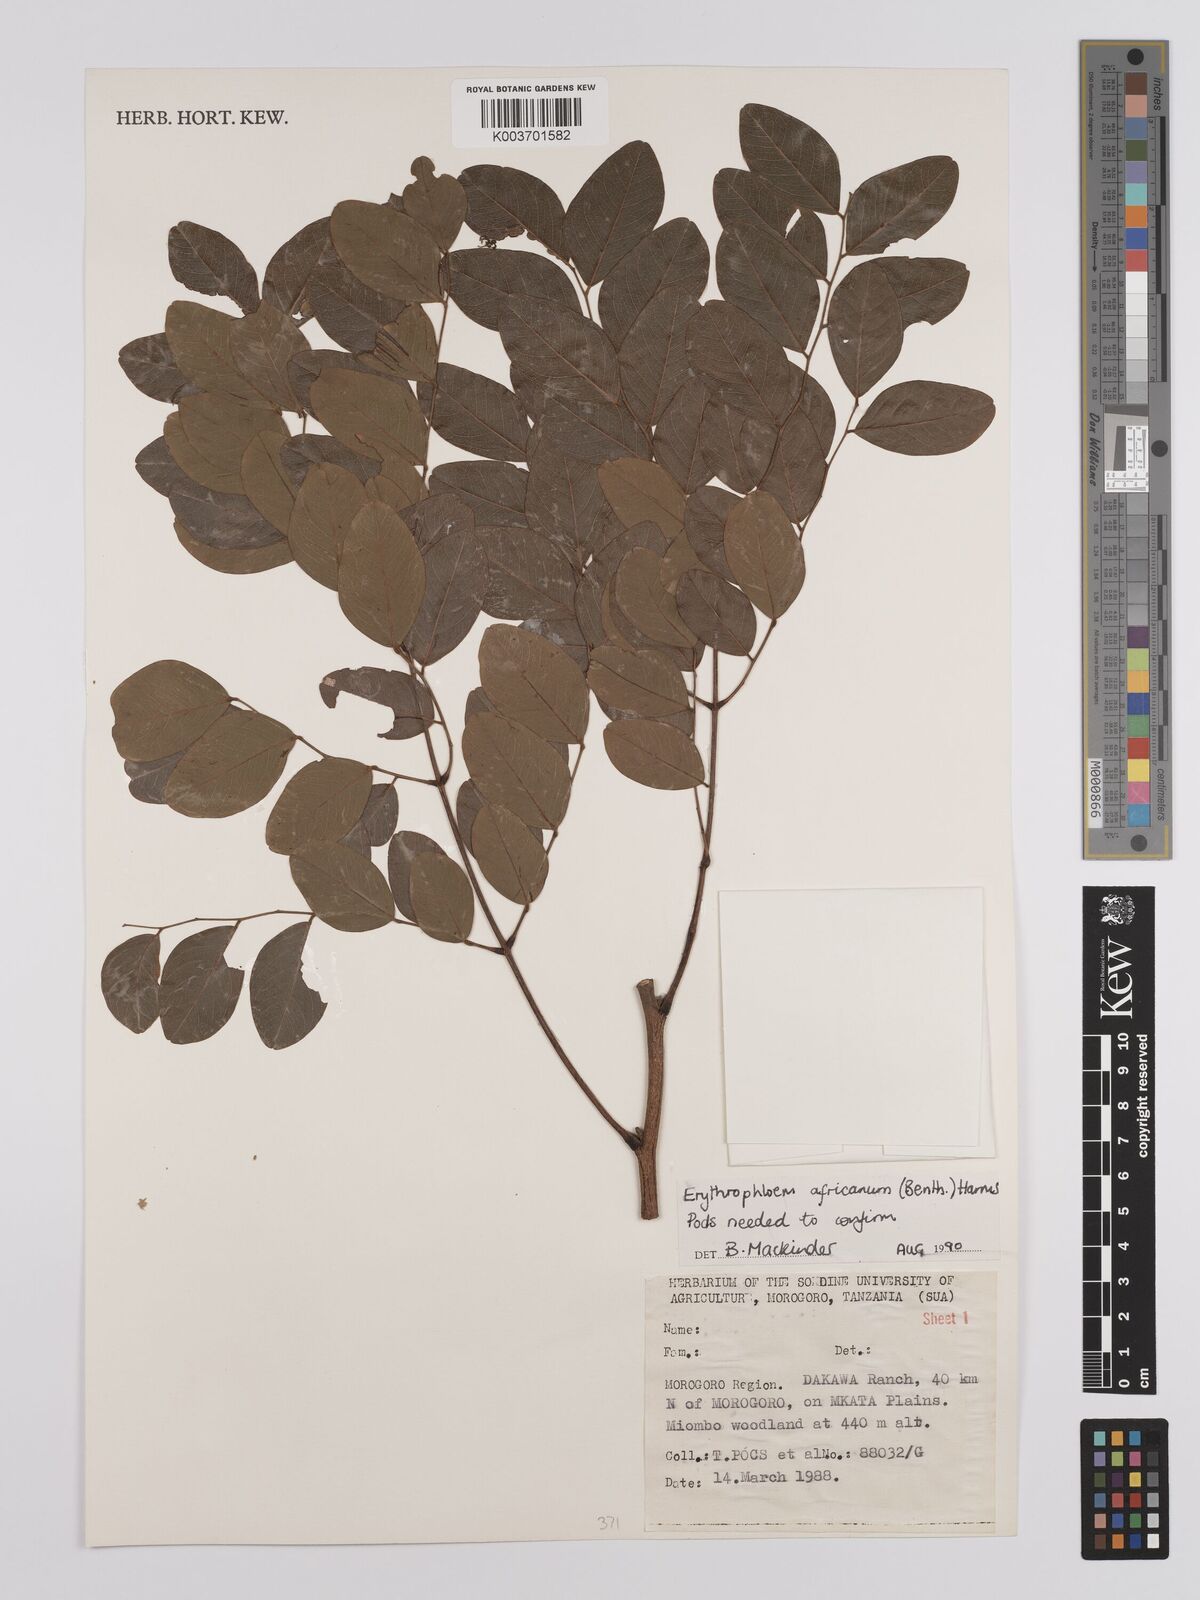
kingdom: Plantae
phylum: Tracheophyta
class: Magnoliopsida
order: Fabales
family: Fabaceae
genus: Erythrophleum
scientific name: Erythrophleum africanum
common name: African blackwood
